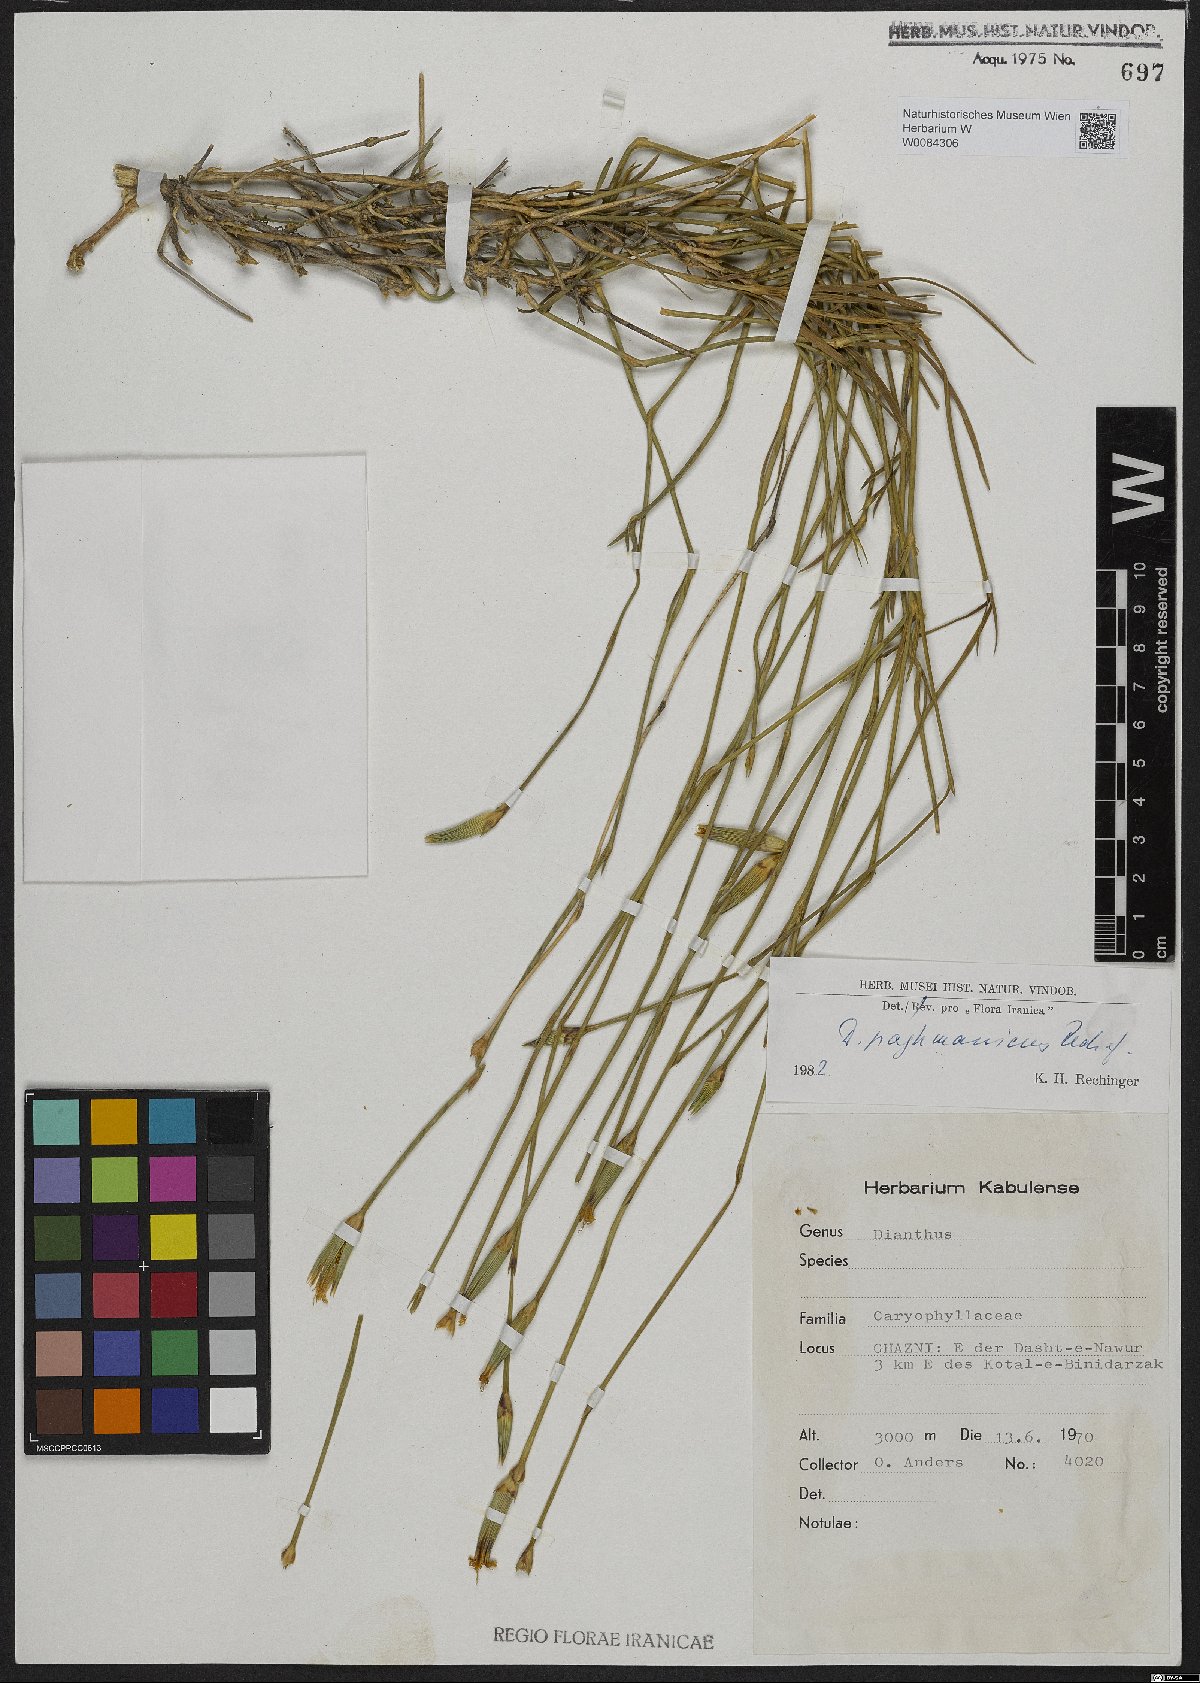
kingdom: Plantae
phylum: Tracheophyta
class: Magnoliopsida
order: Caryophyllales
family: Caryophyllaceae
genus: Dianthus
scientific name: Dianthus paghmanicus
